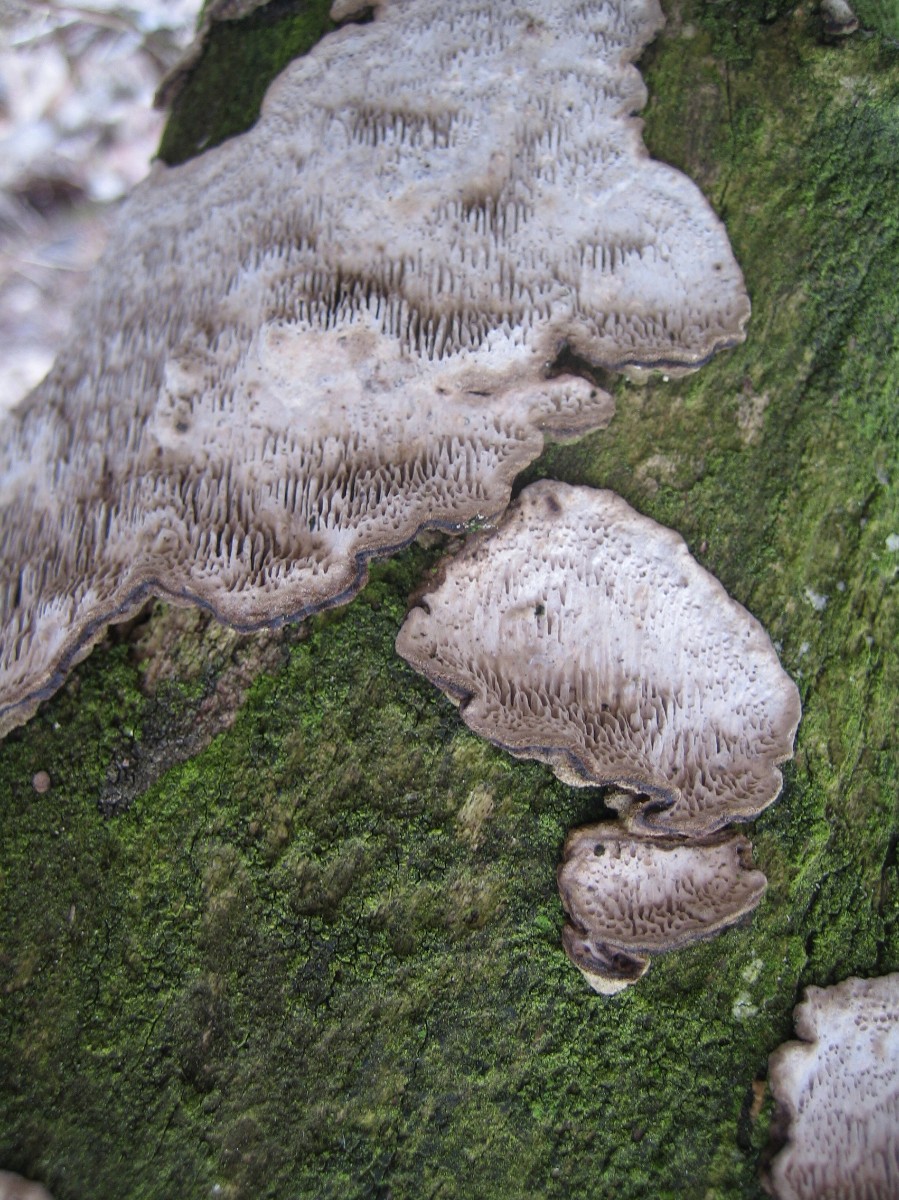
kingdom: Fungi
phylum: Basidiomycota
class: Agaricomycetes
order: Polyporales
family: Polyporaceae
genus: Podofomes
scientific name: Podofomes mollis
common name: blød begporesvamp
